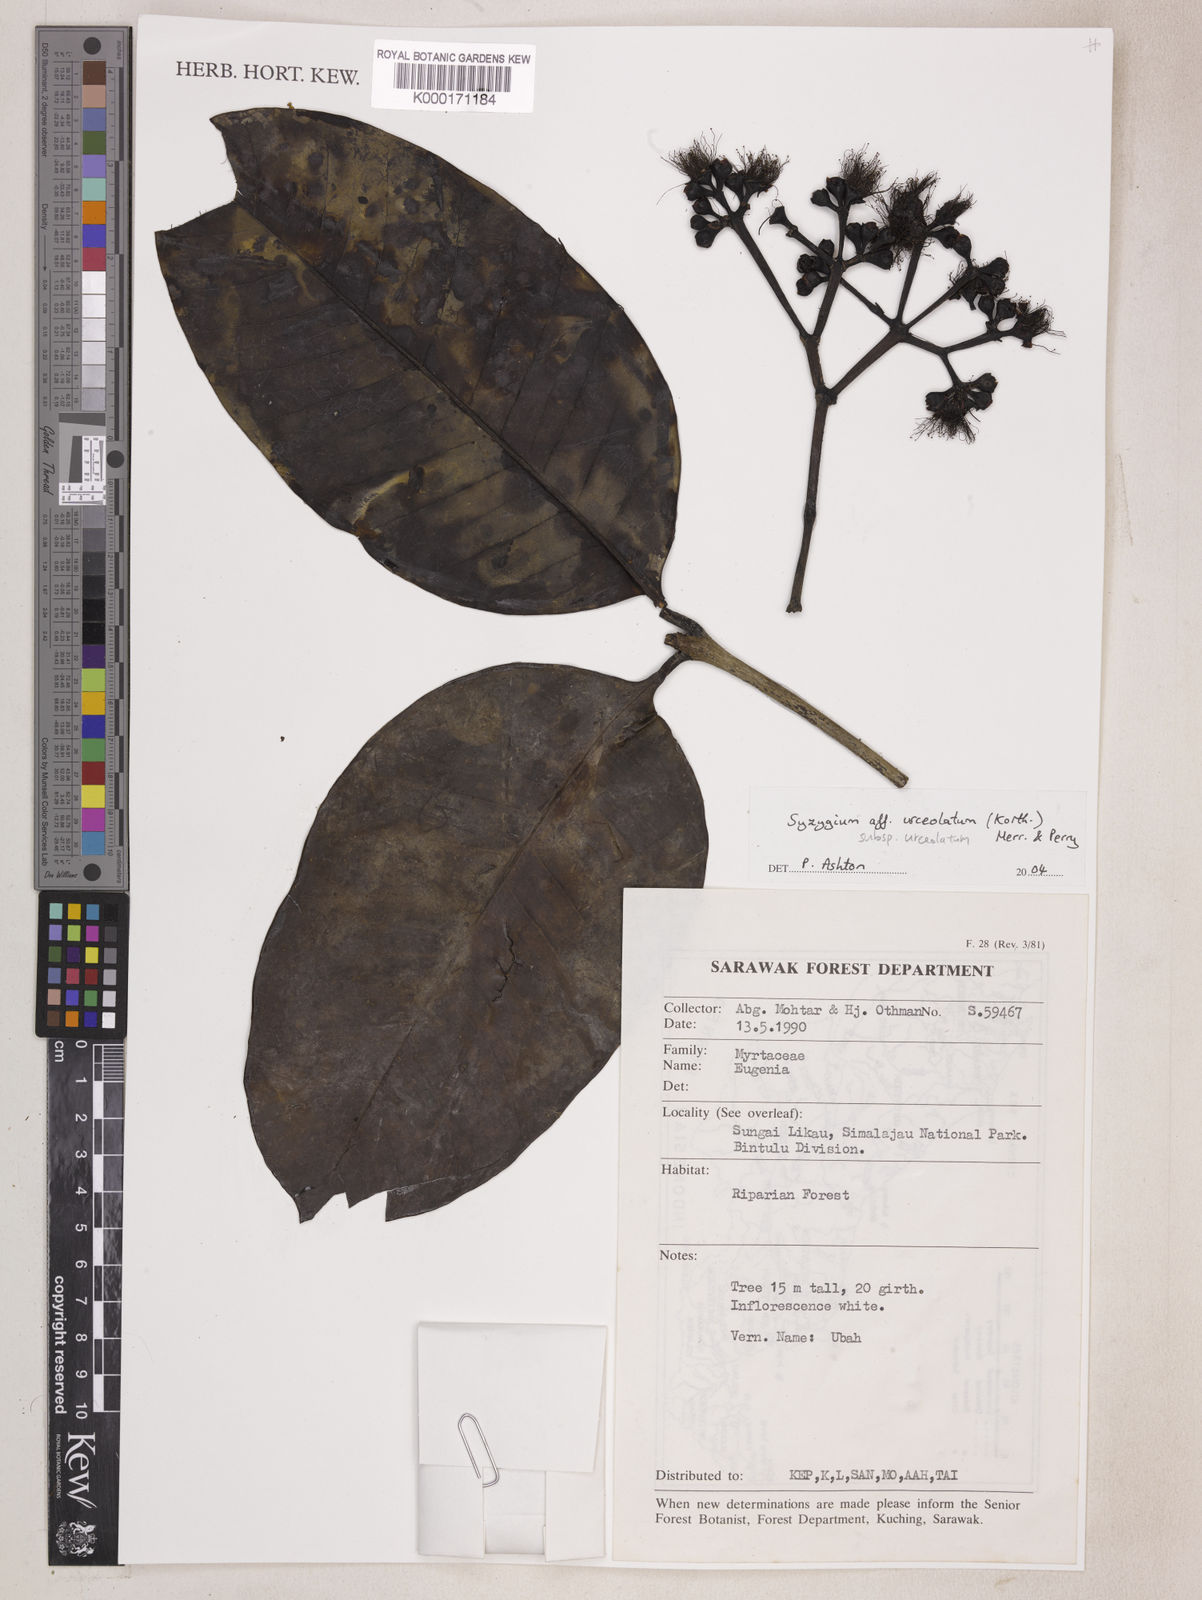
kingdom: Plantae
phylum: Tracheophyta
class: Magnoliopsida
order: Myrtales
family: Myrtaceae
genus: Syzygium
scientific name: Syzygium urceolatum
